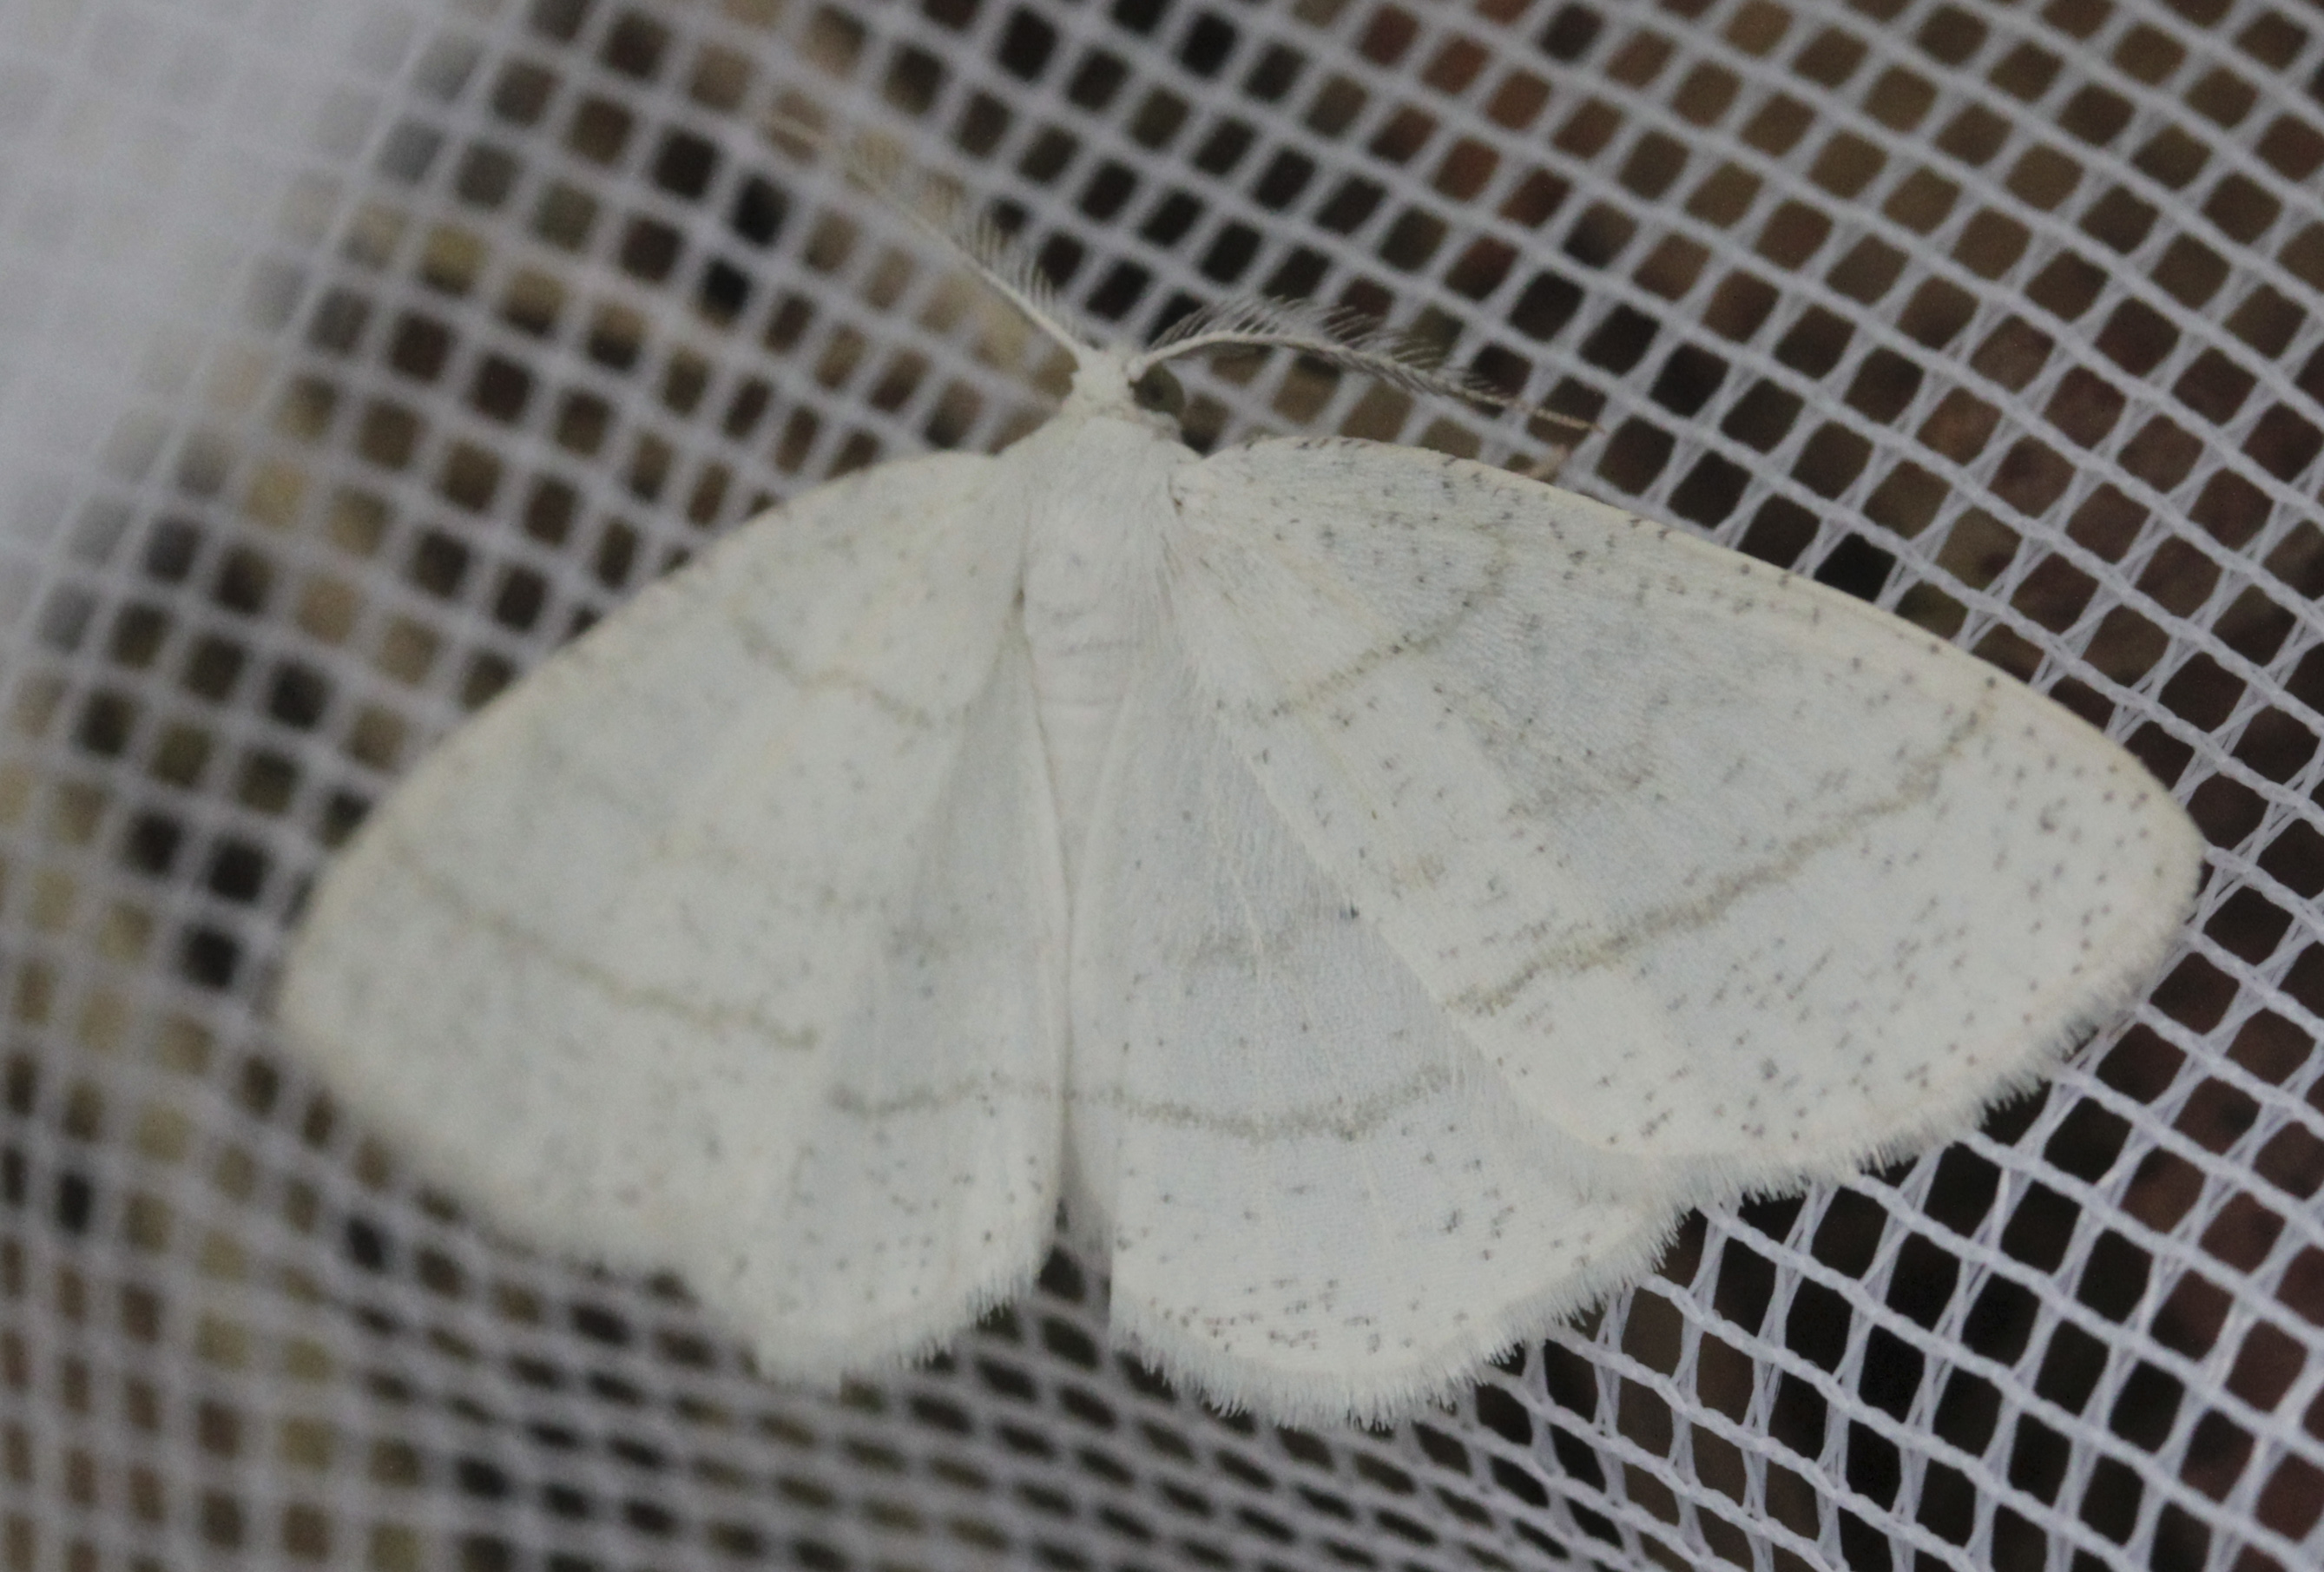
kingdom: Animalia
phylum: Arthropoda
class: Insecta
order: Lepidoptera
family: Geometridae
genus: Cabera
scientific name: Cabera pusaria
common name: Common white wave
